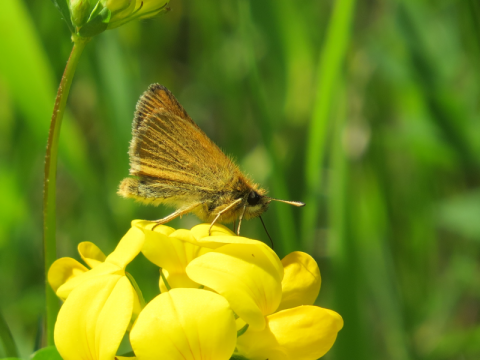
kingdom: Animalia
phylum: Arthropoda
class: Insecta
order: Lepidoptera
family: Hesperiidae
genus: Thymelicus
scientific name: Thymelicus lineola
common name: European Skipper
